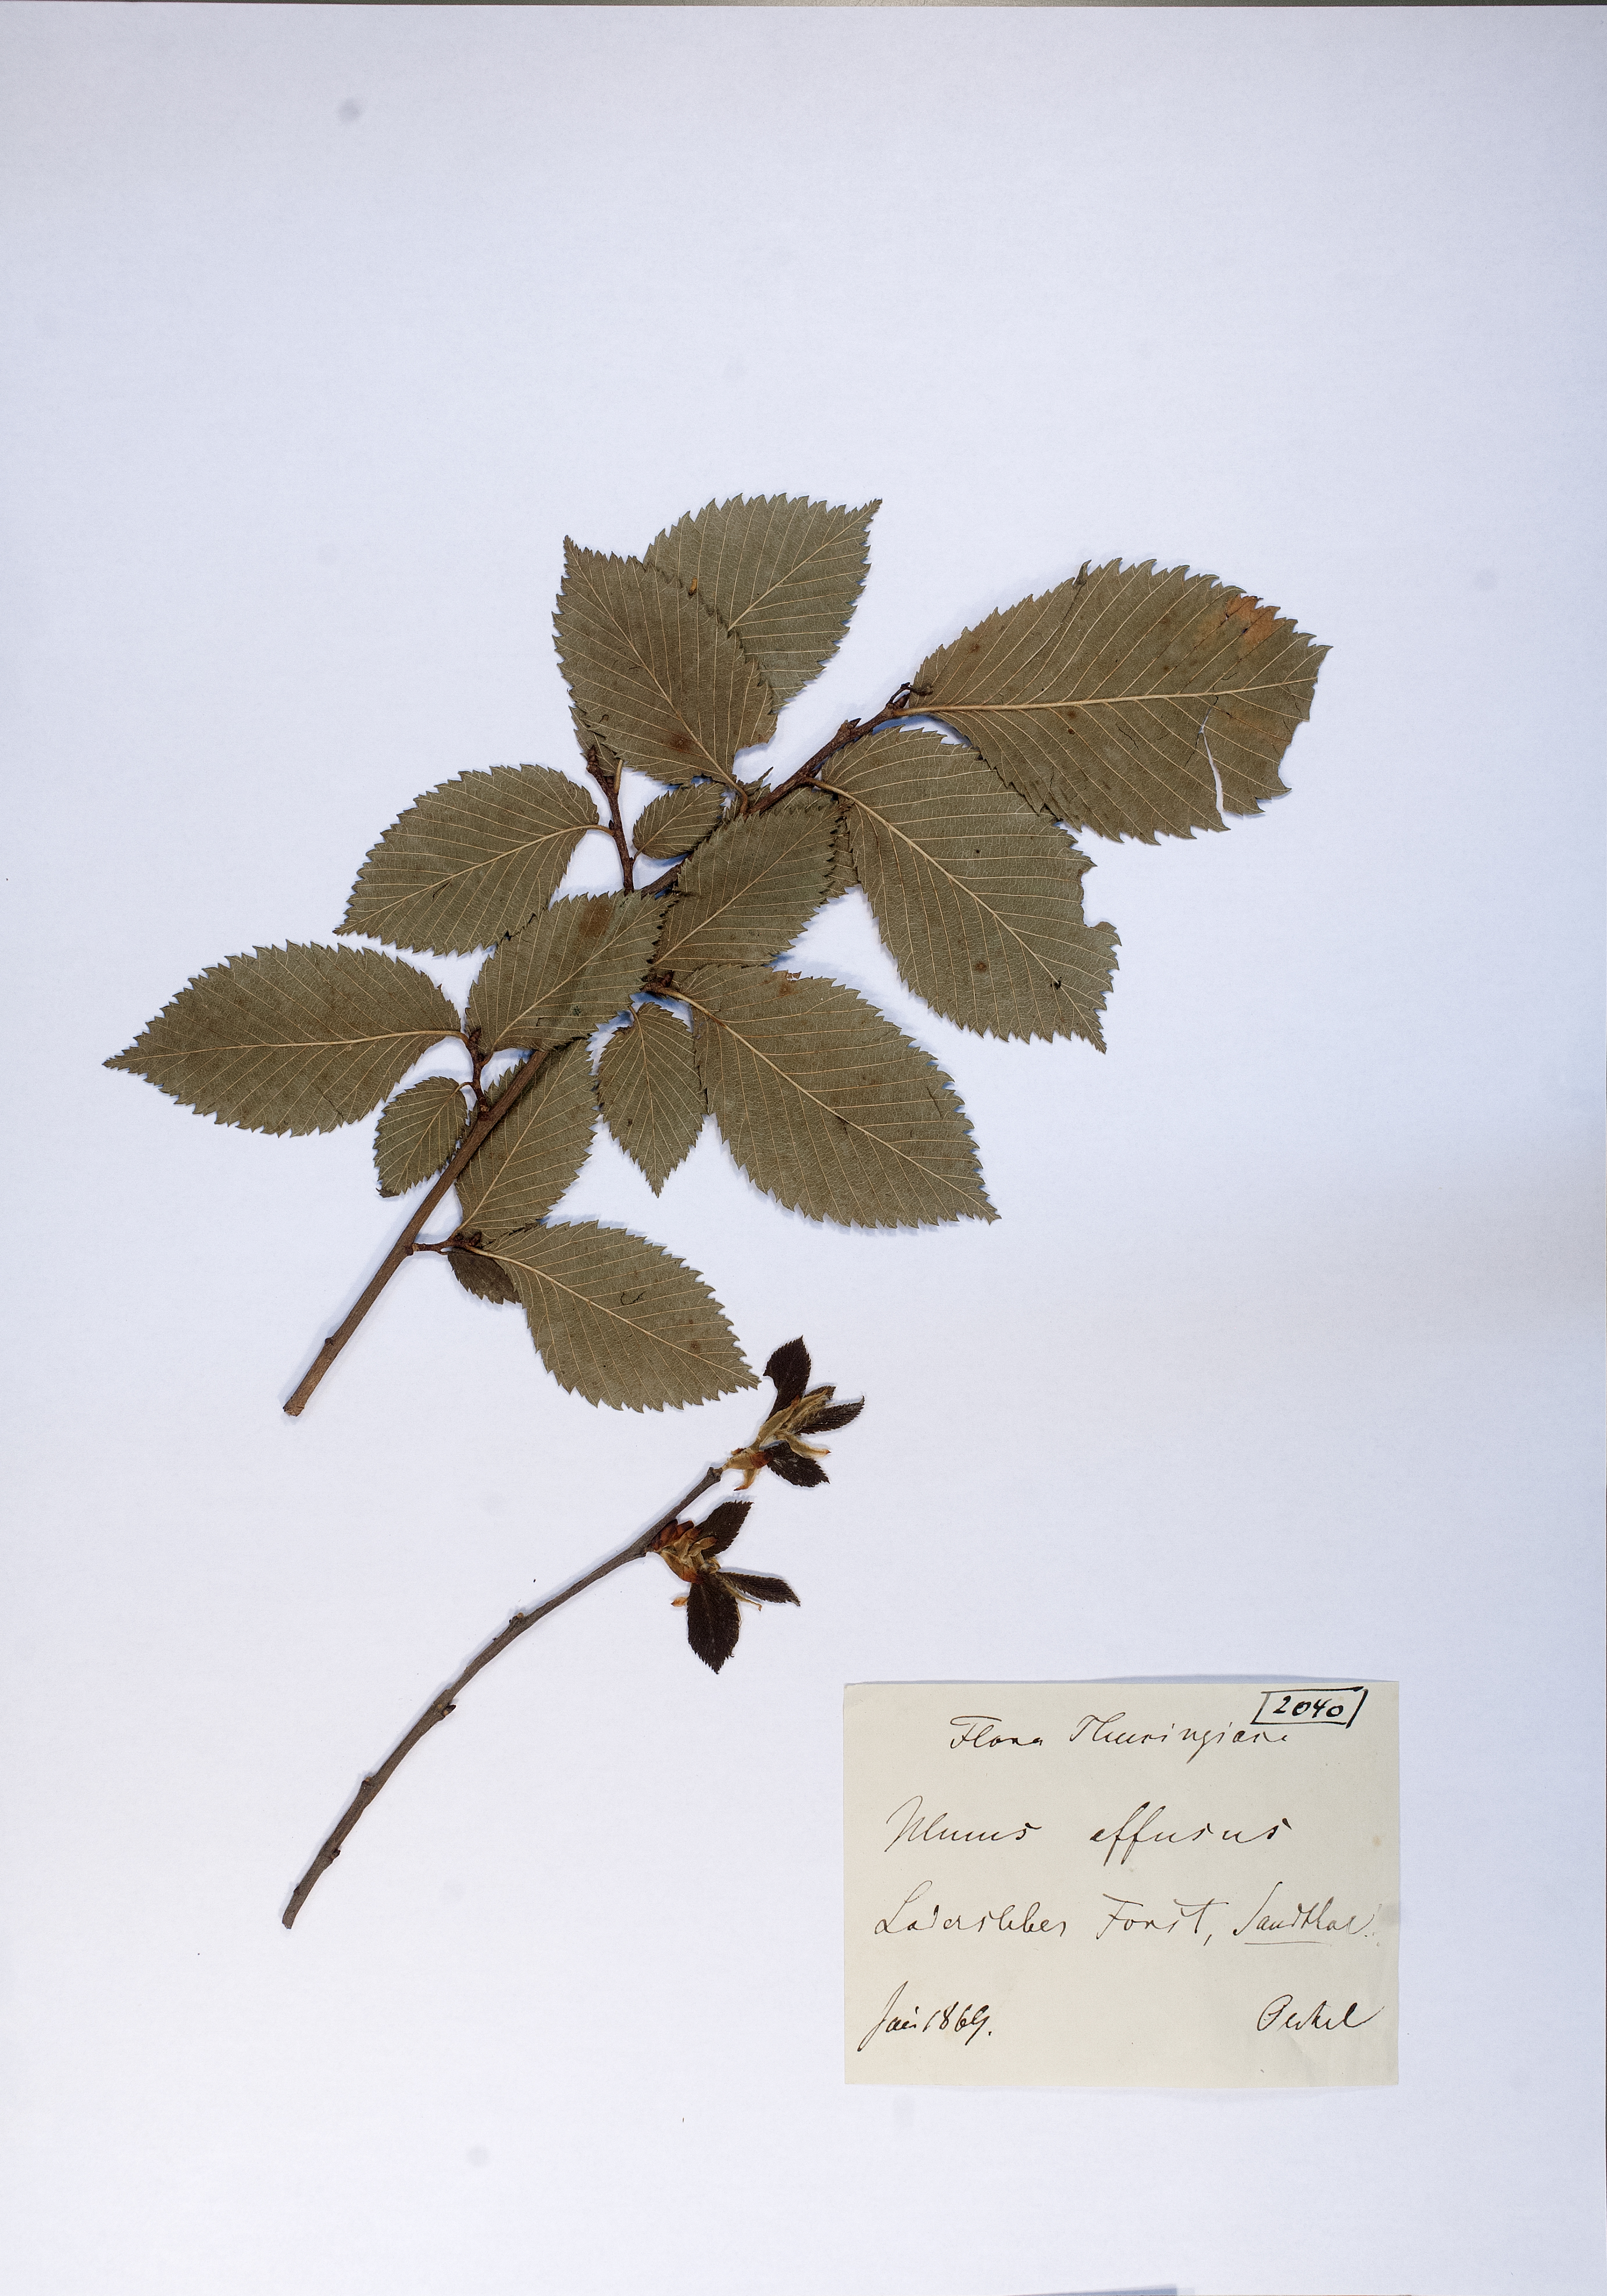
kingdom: Plantae
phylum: Tracheophyta
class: Magnoliopsida
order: Rosales
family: Ulmaceae
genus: Ulmus
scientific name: Ulmus laevis
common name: European white-elm
